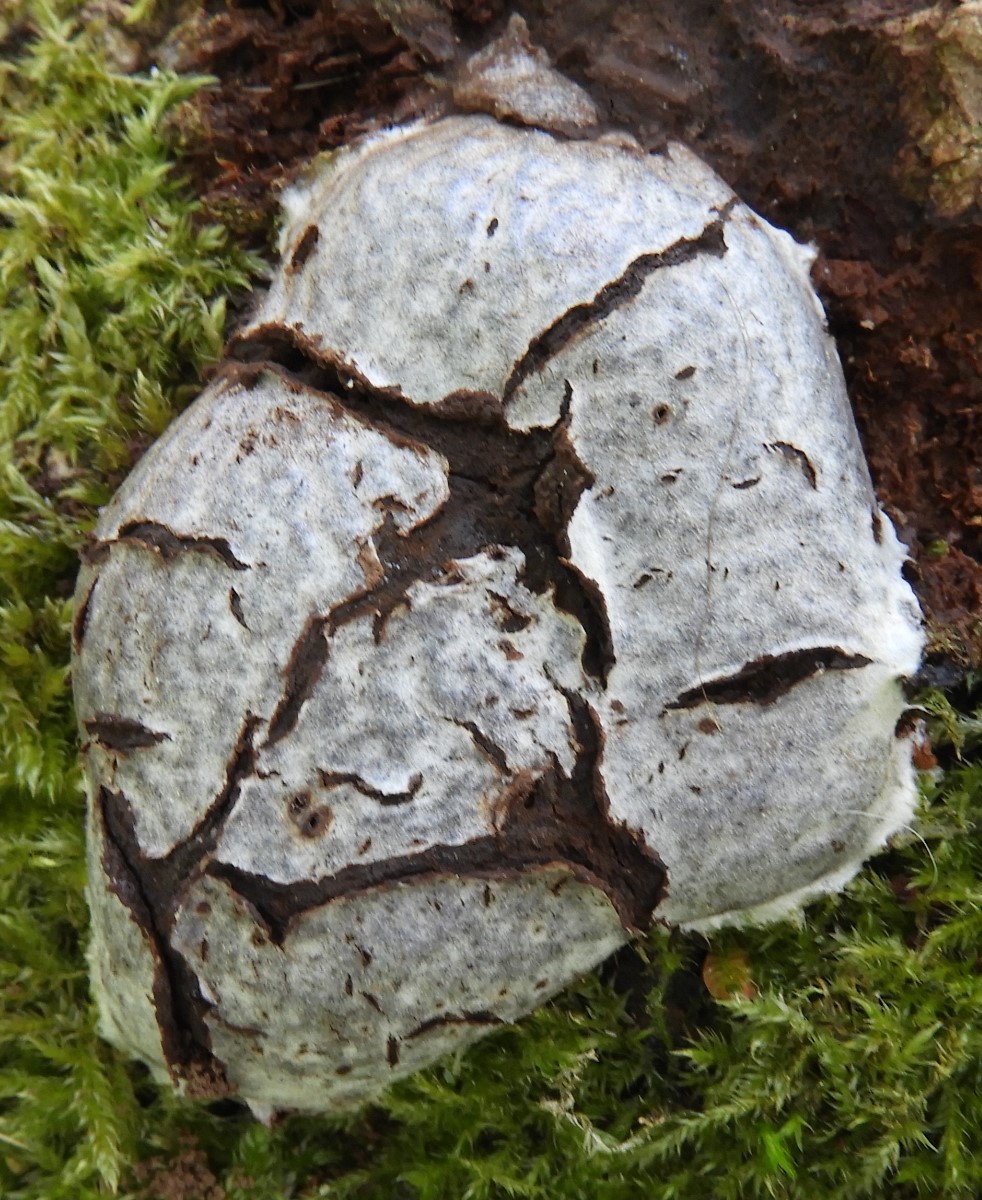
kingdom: Protozoa
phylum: Mycetozoa
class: Myxomycetes
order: Cribrariales
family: Tubiferaceae
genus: Reticularia
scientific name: Reticularia lycoperdon
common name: skinnende støvpude
